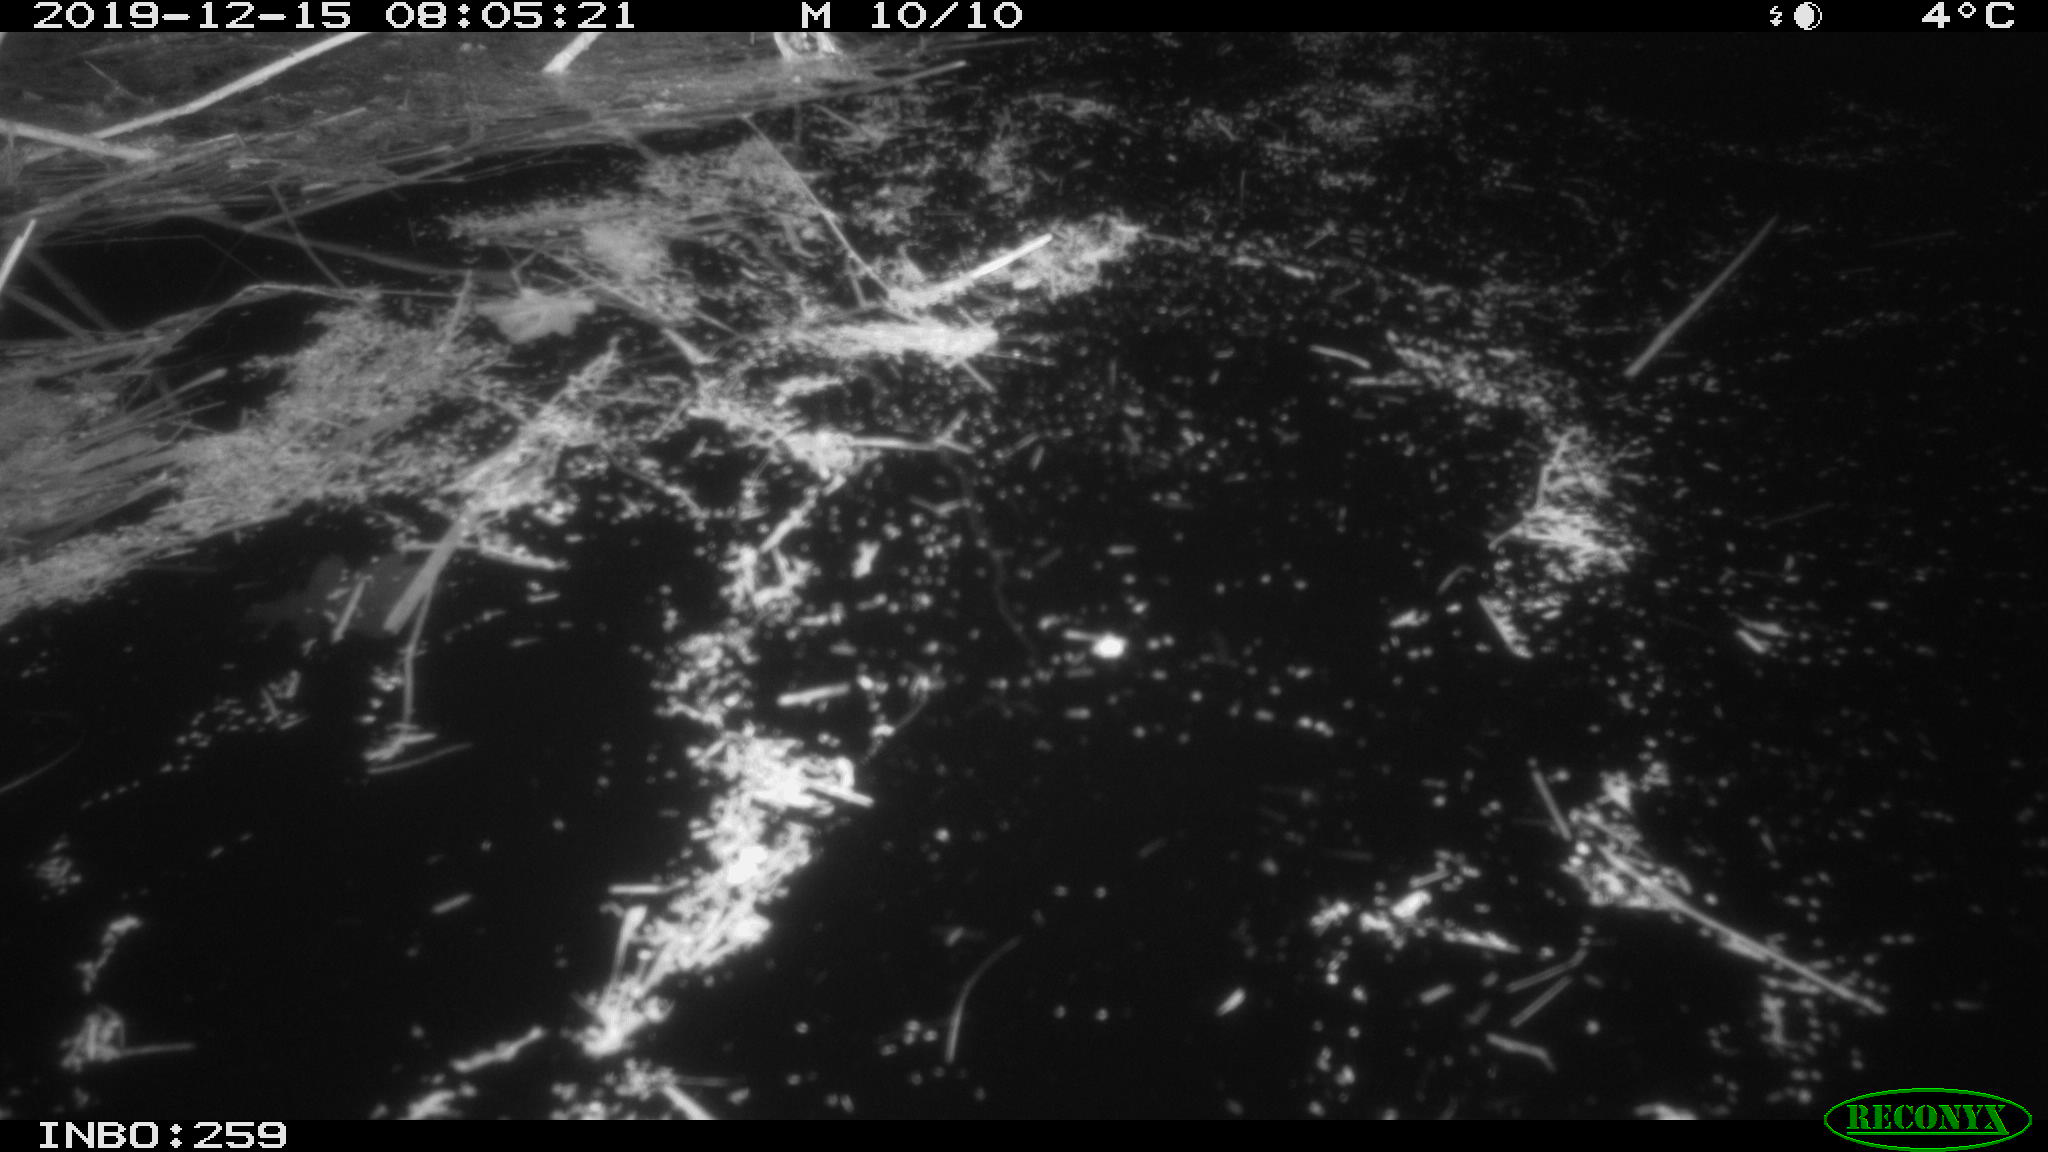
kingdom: Animalia
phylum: Chordata
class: Aves
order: Gruiformes
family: Rallidae
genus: Gallinula
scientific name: Gallinula chloropus
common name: Common moorhen
